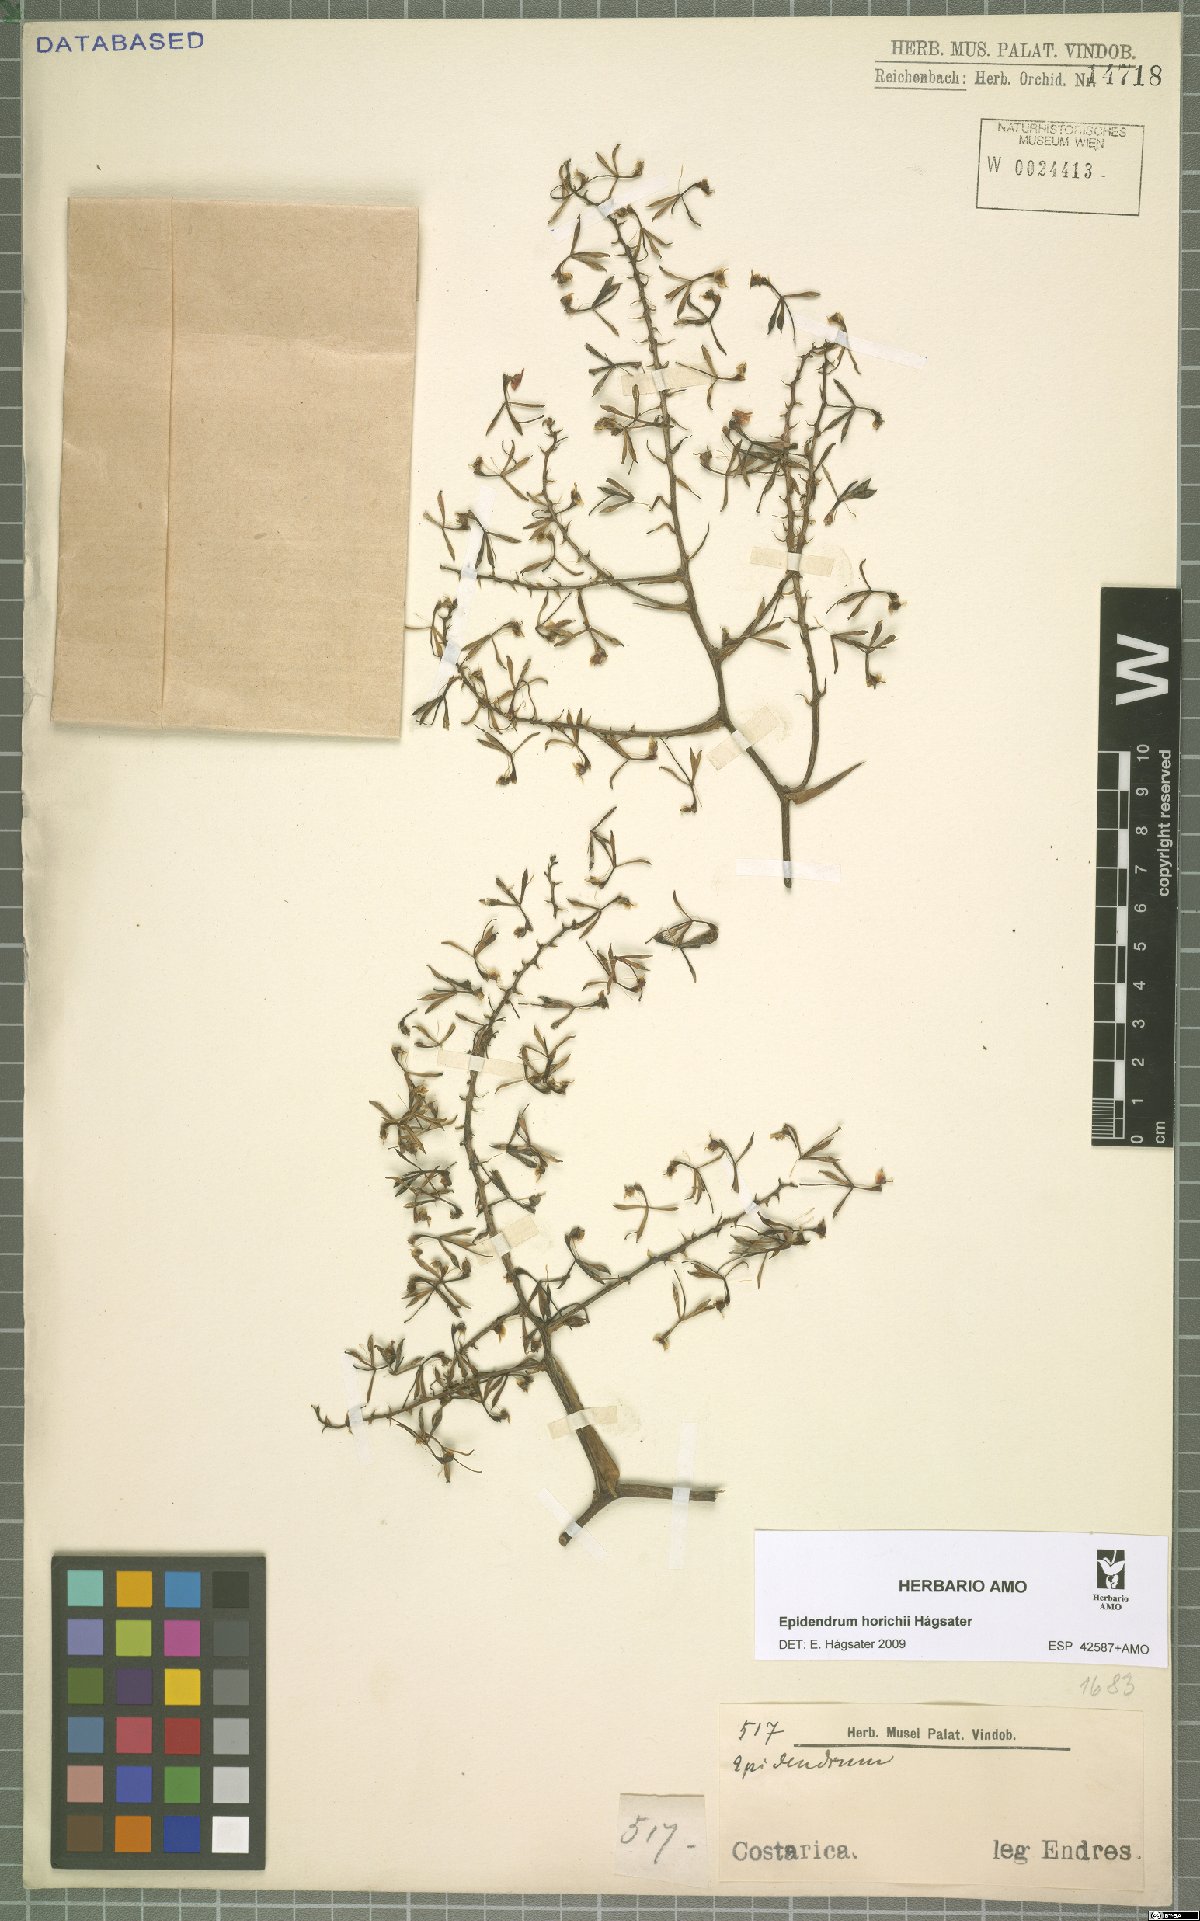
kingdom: Plantae
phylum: Tracheophyta
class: Liliopsida
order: Asparagales
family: Orchidaceae
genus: Epidendrum
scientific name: Epidendrum horichii
